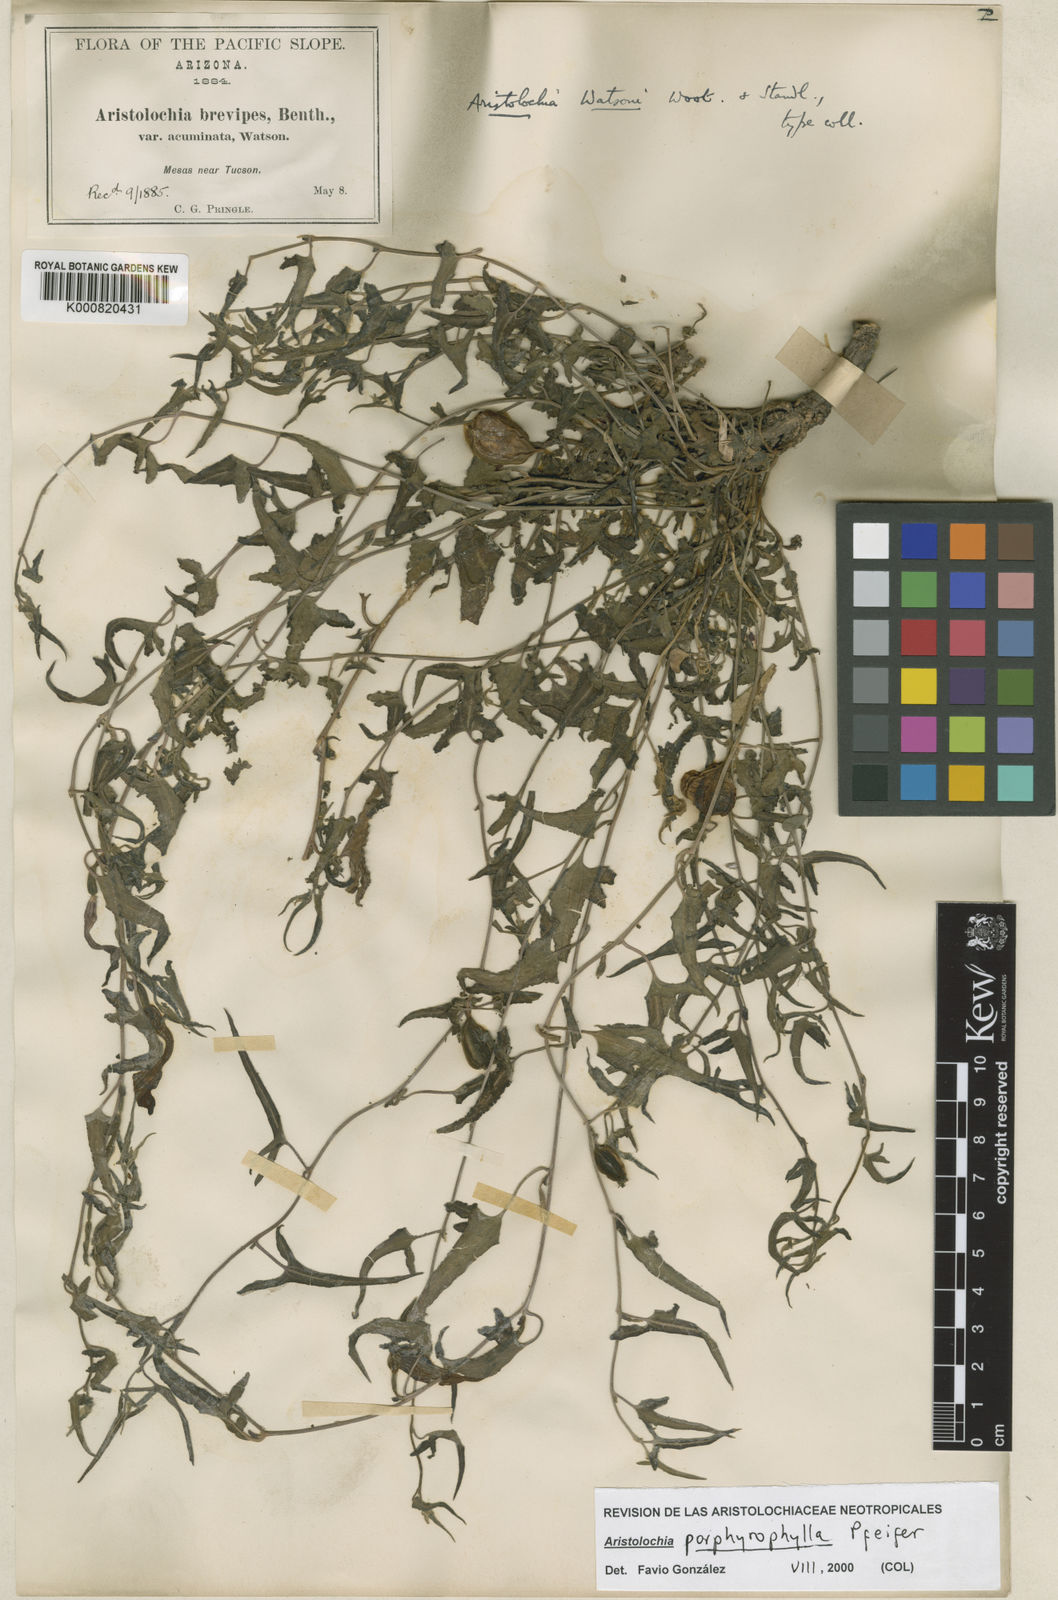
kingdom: Plantae
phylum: Tracheophyta
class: Magnoliopsida
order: Piperales
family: Aristolochiaceae
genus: Aristolochia
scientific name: Aristolochia watsonii
